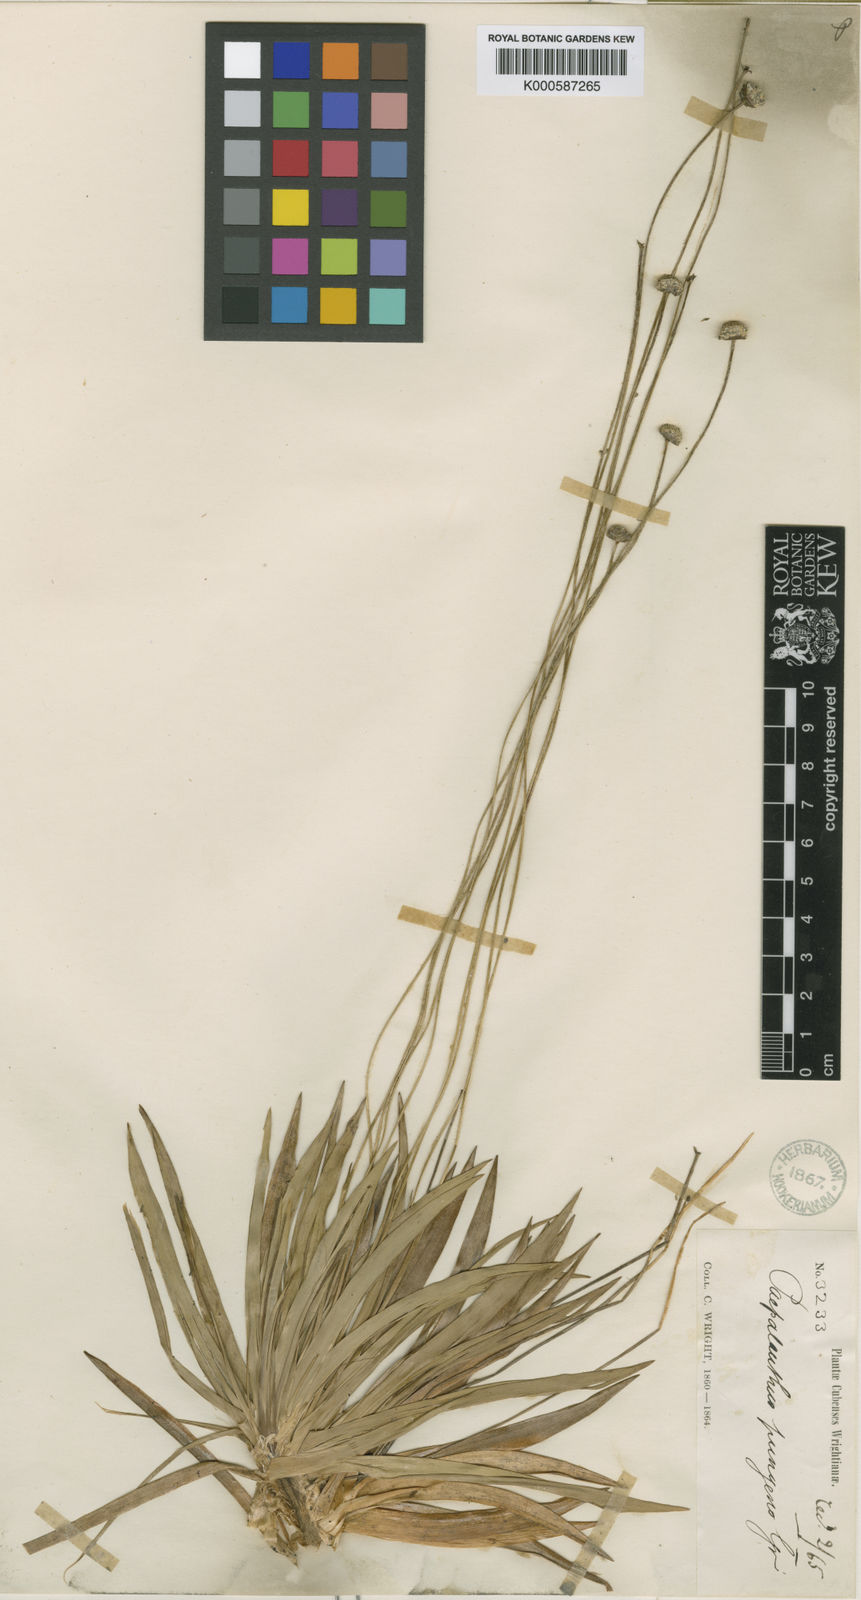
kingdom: Plantae
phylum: Tracheophyta
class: Liliopsida
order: Poales
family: Eriocaulaceae
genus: Paepalanthus
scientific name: Paepalanthus pungens
